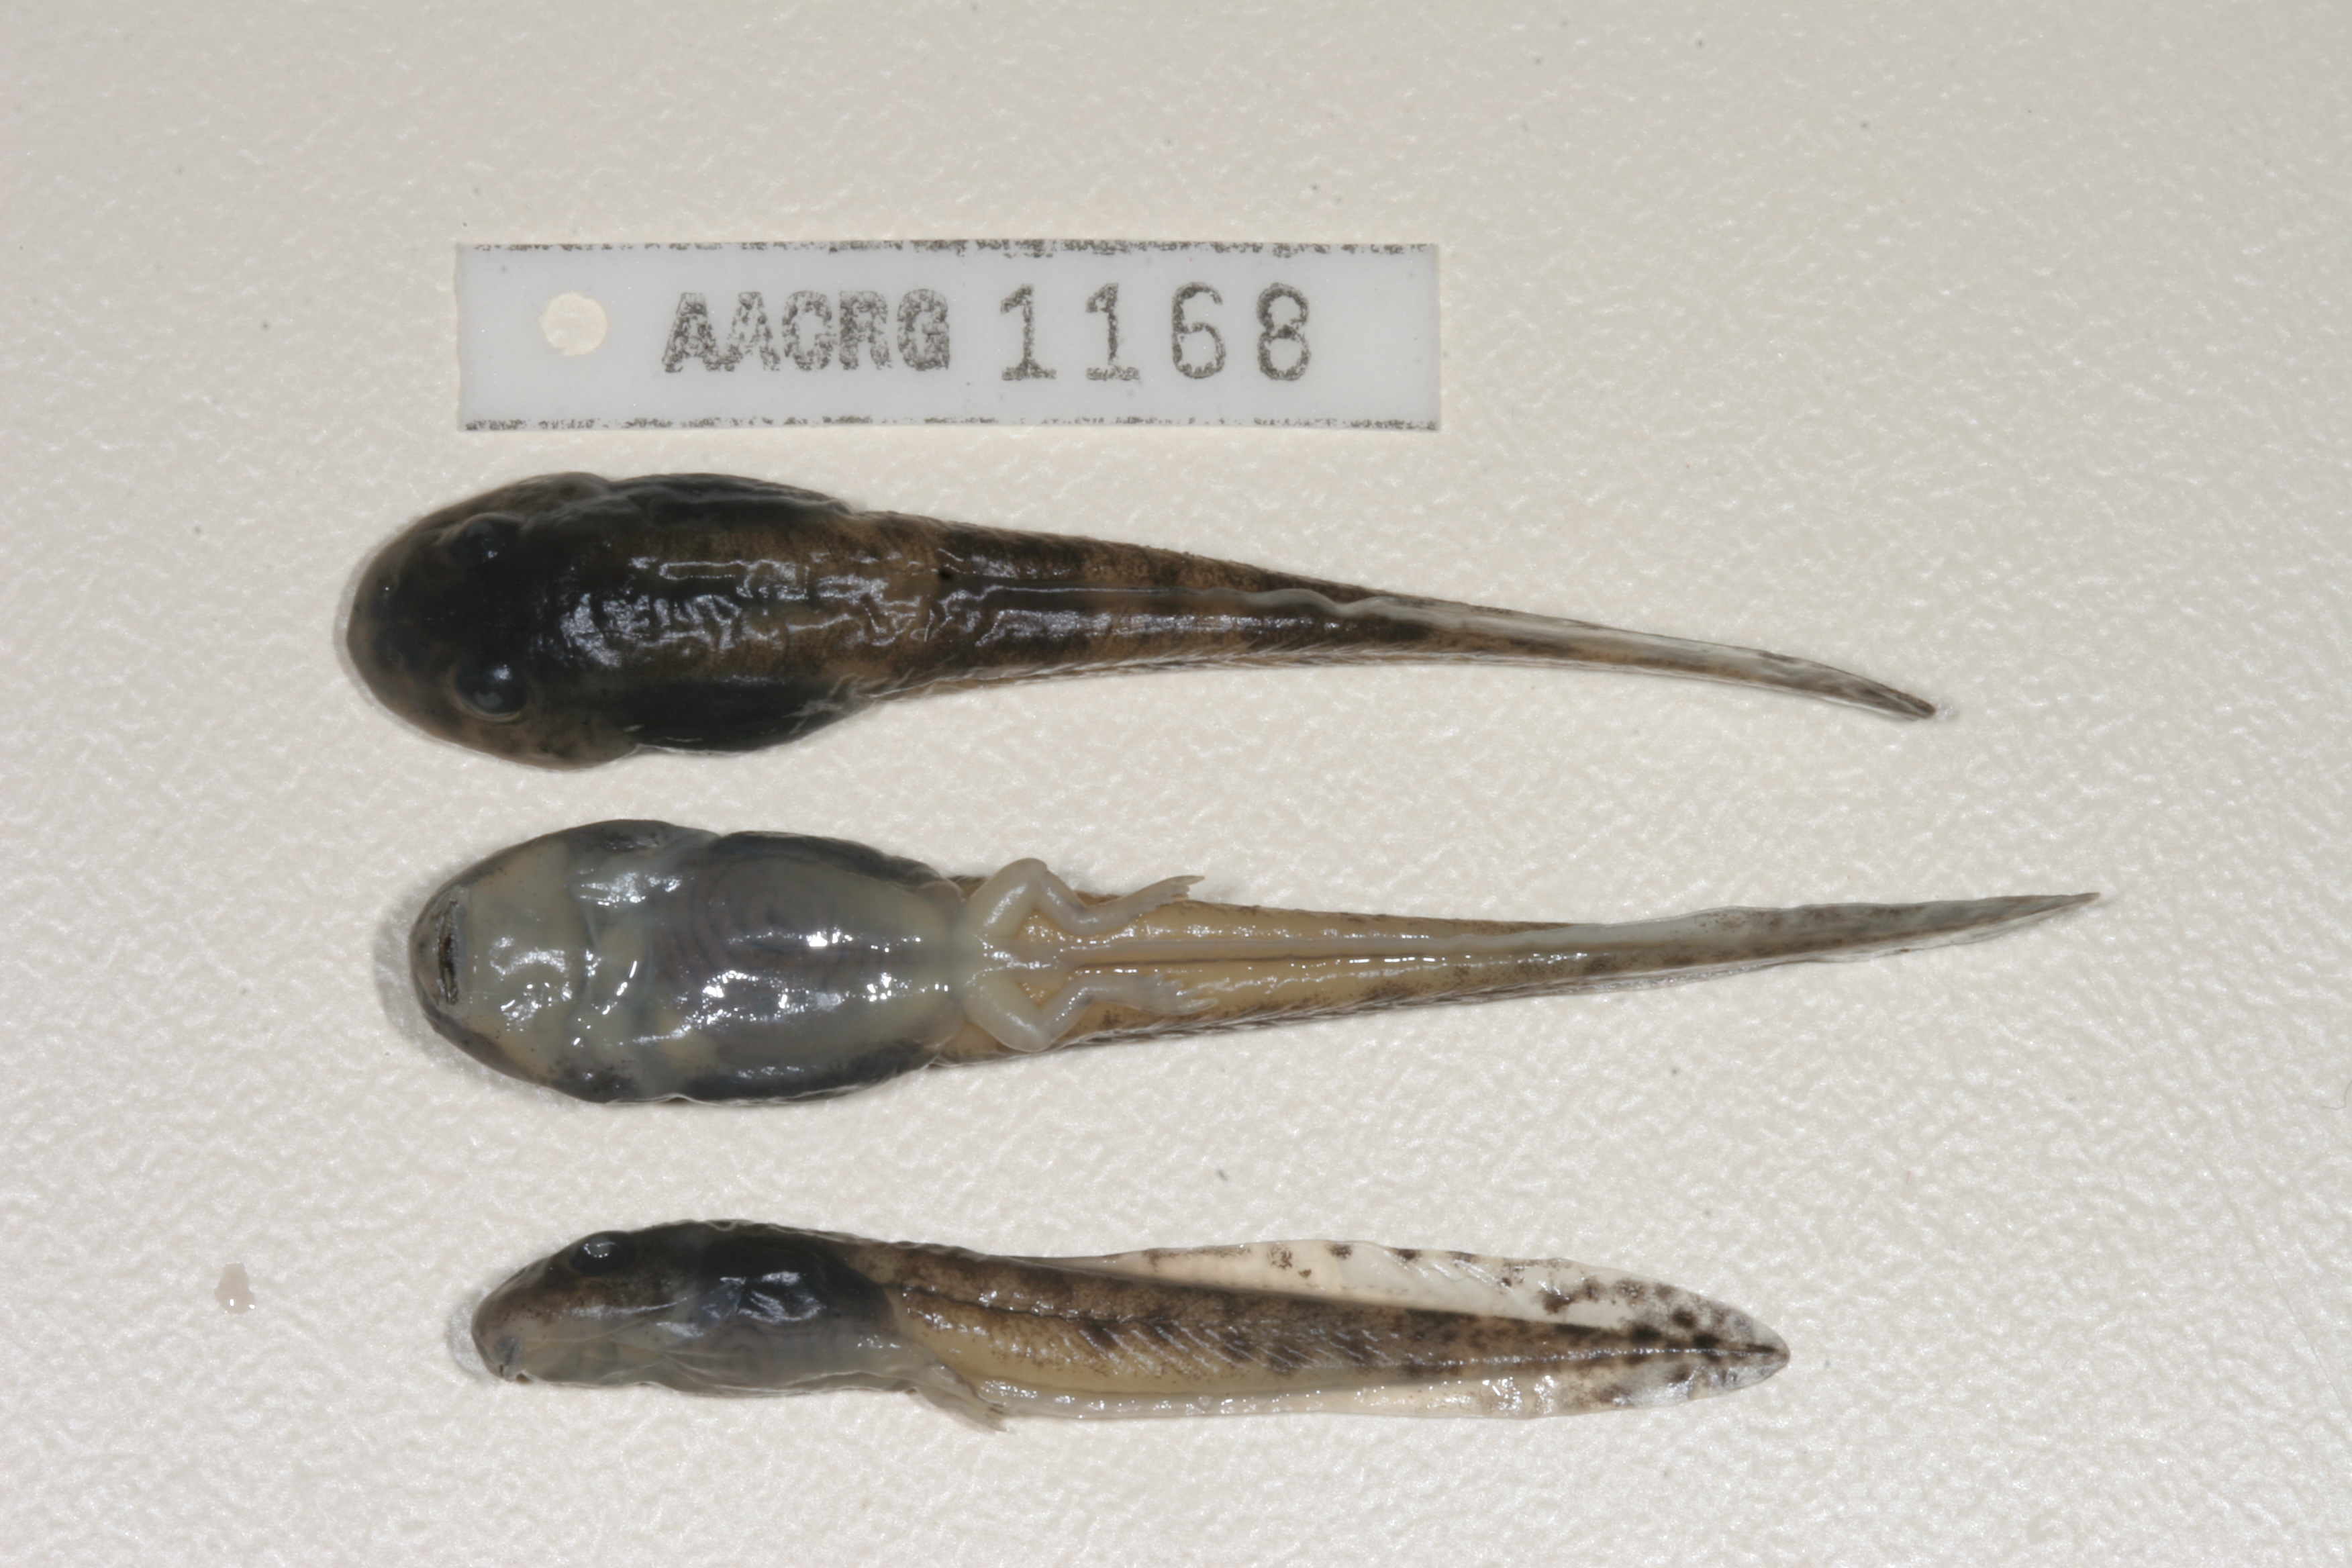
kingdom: Animalia
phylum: Chordata
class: Amphibia
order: Anura
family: Pyxicephalidae
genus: Amietia
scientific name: Amietia vertebralis
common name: Drakensberg stream frog
